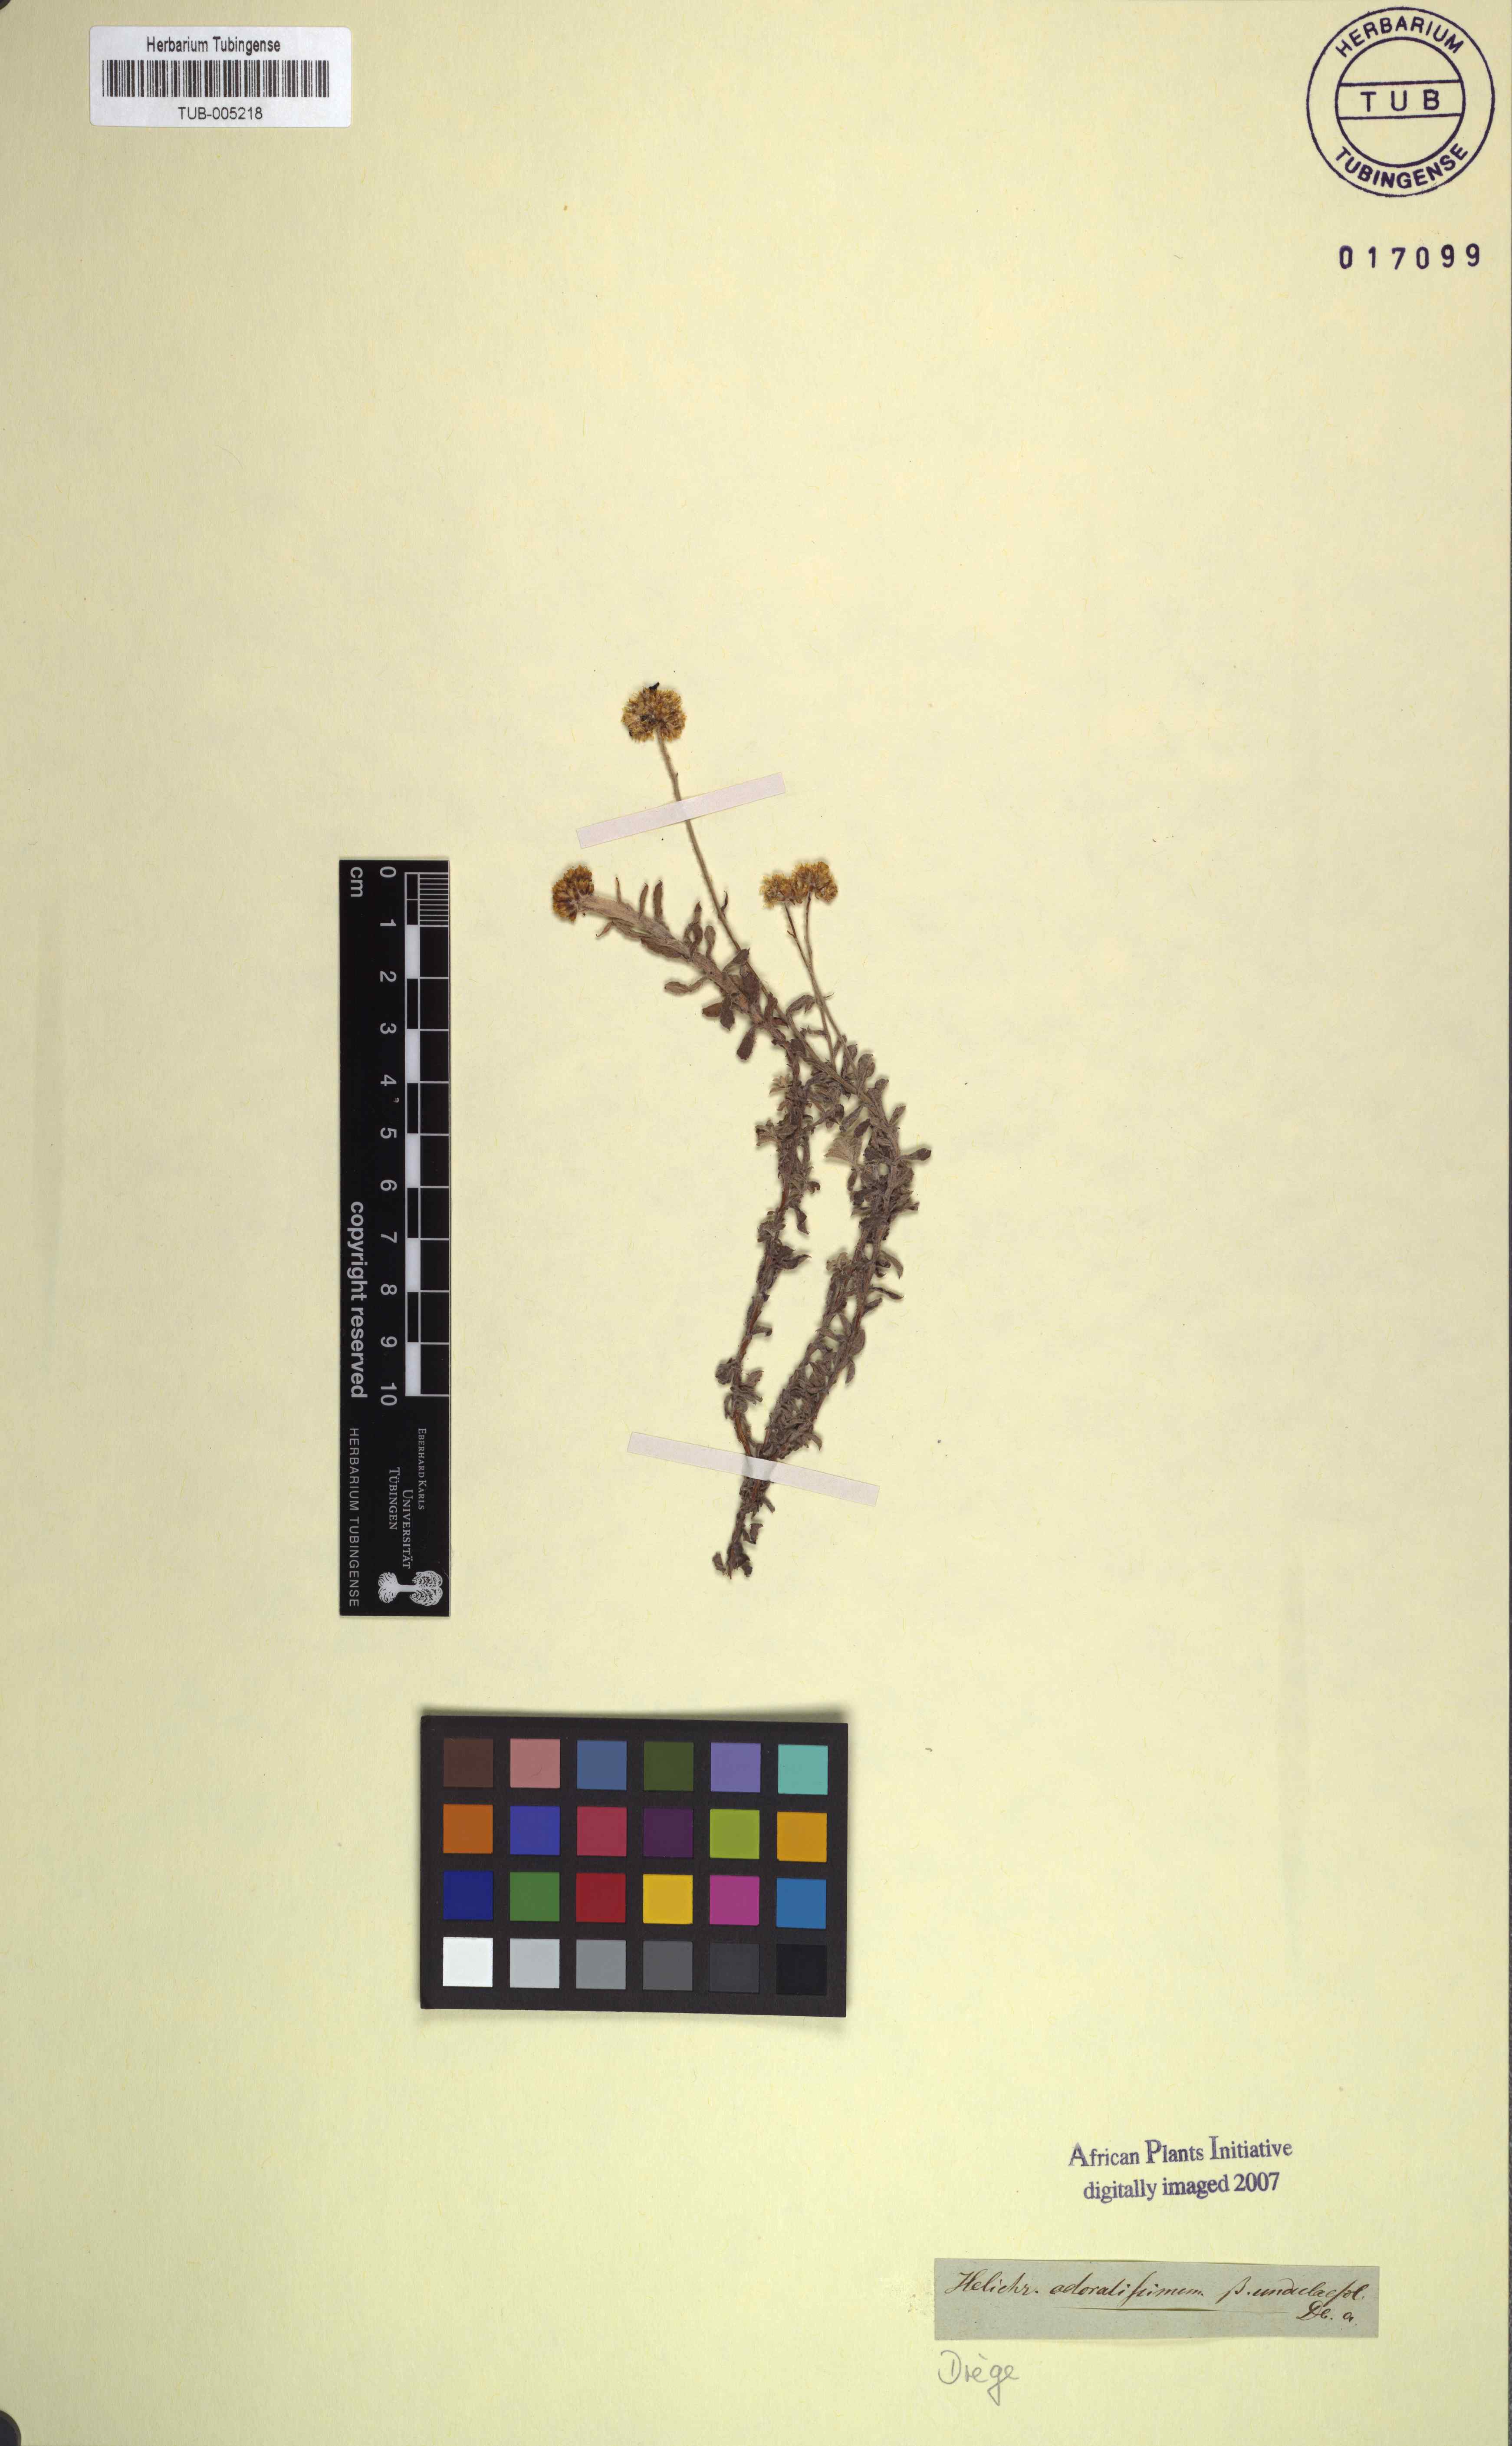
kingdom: Plantae
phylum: Tracheophyta
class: Magnoliopsida
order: Asterales
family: Asteraceae
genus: Helichrysum
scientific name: Helichrysum odoratissimum
